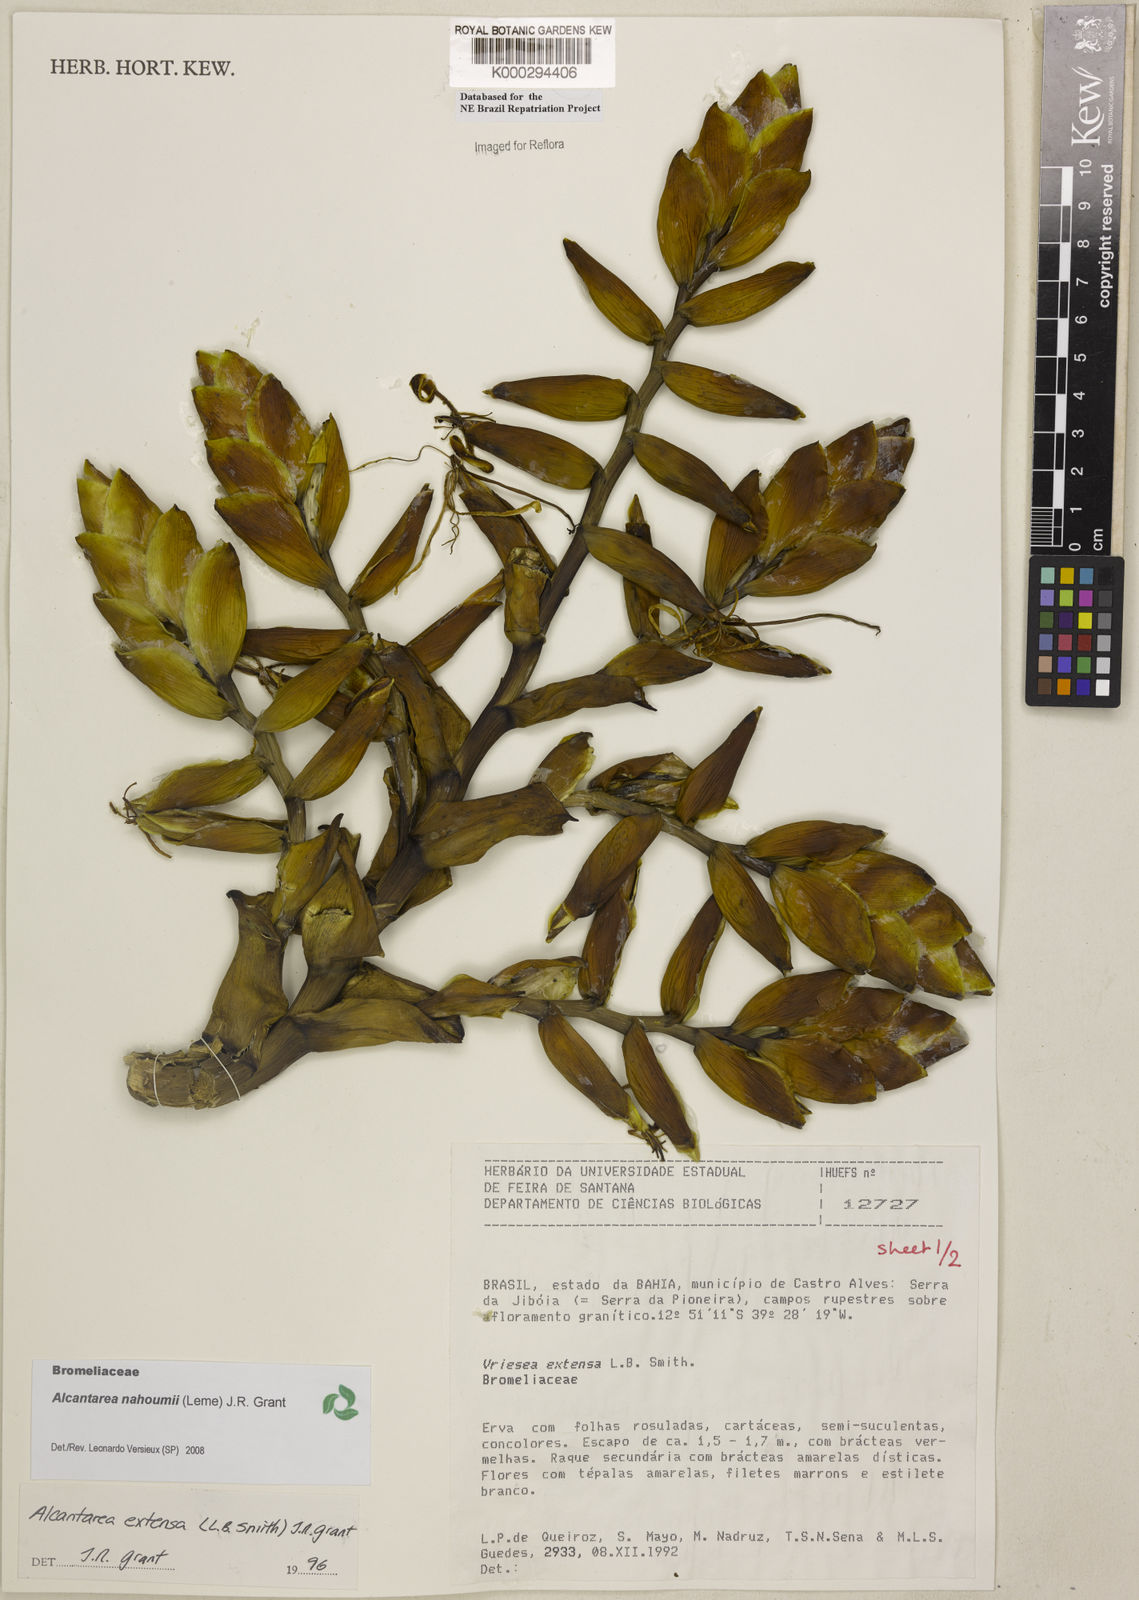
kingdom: Plantae
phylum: Tracheophyta
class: Liliopsida
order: Poales
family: Bromeliaceae
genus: Alcantarea
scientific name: Alcantarea nahoumii
